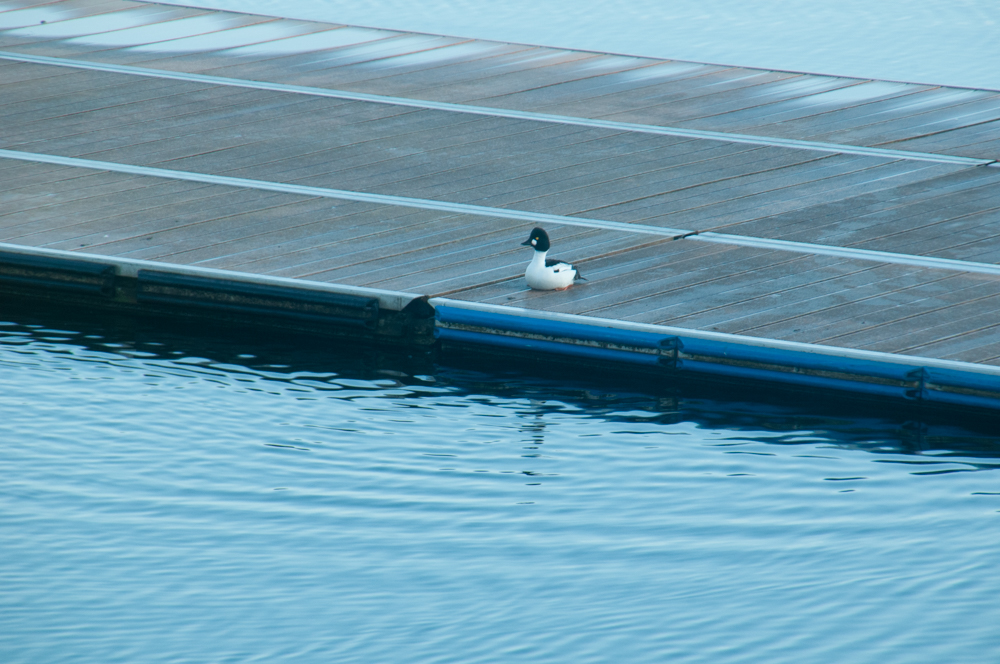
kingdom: Animalia
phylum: Chordata
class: Aves
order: Anseriformes
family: Anatidae
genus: Bucephala
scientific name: Bucephala clangula
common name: Common goldeneye
